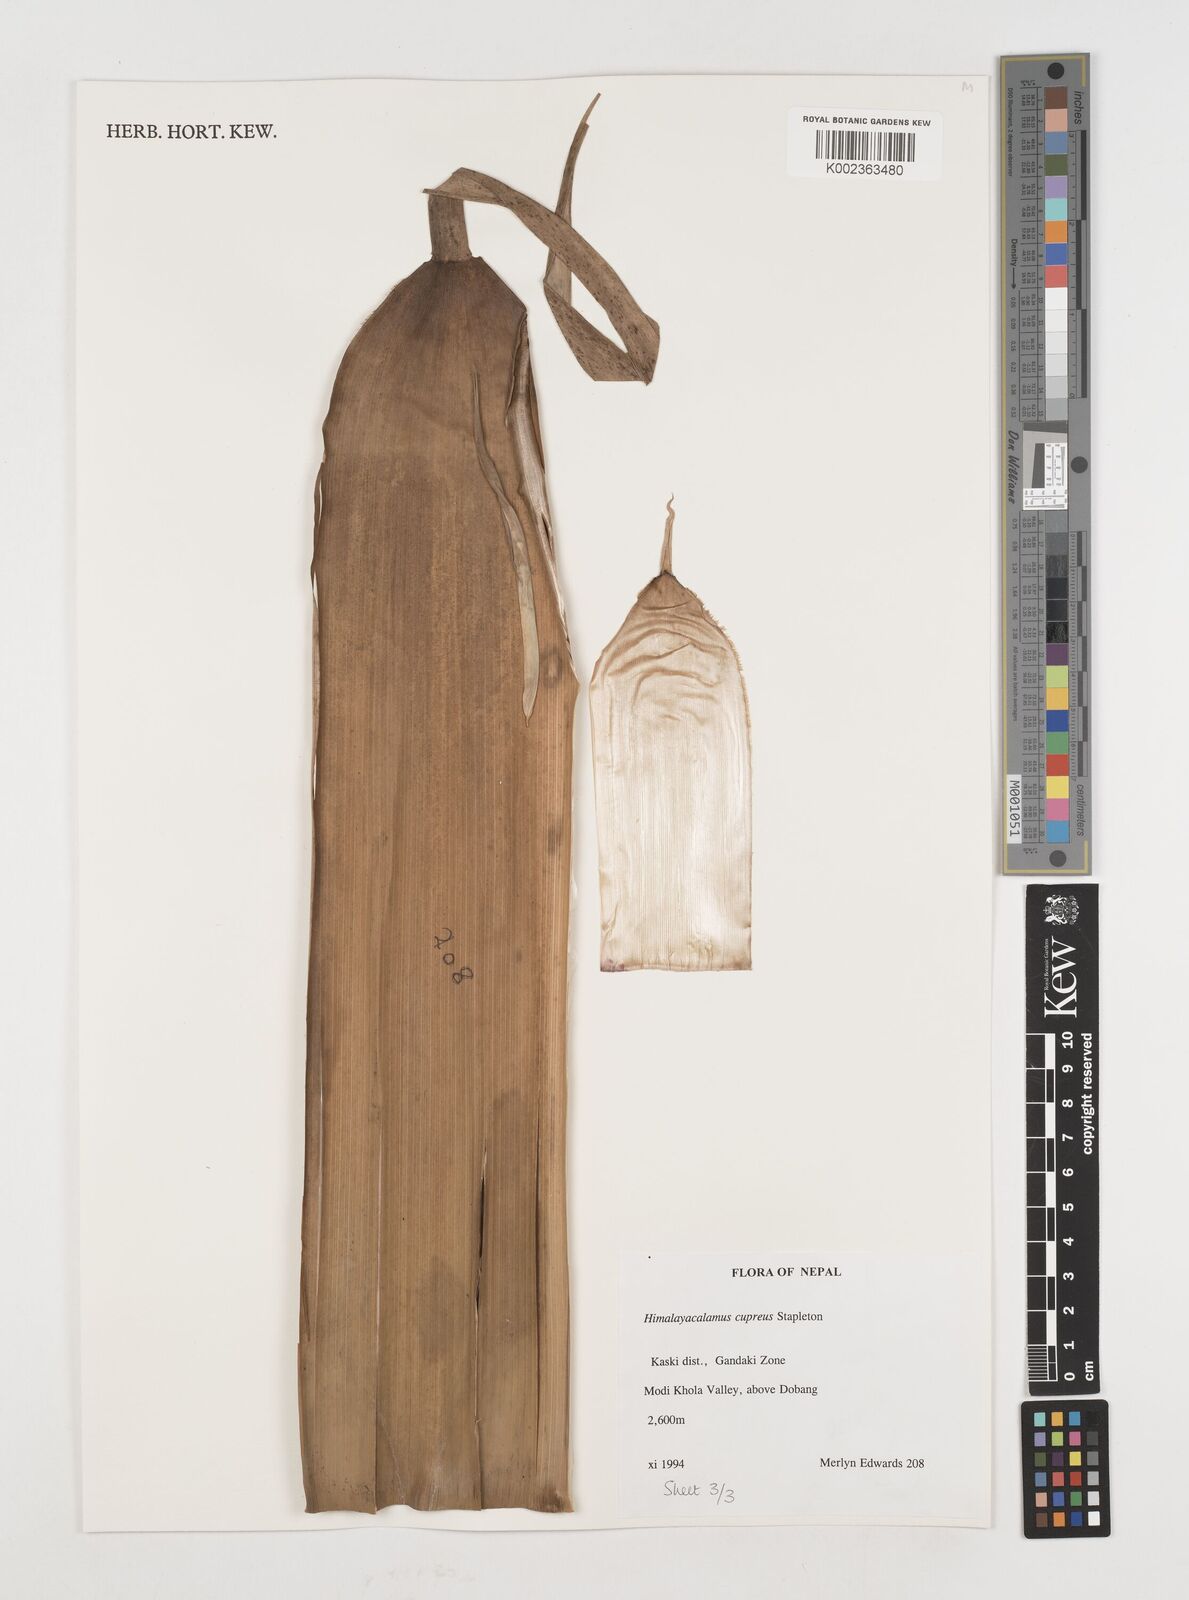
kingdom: Plantae
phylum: Tracheophyta
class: Liliopsida
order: Poales
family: Poaceae
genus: Himalayacalamus
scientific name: Himalayacalamus cupreus
